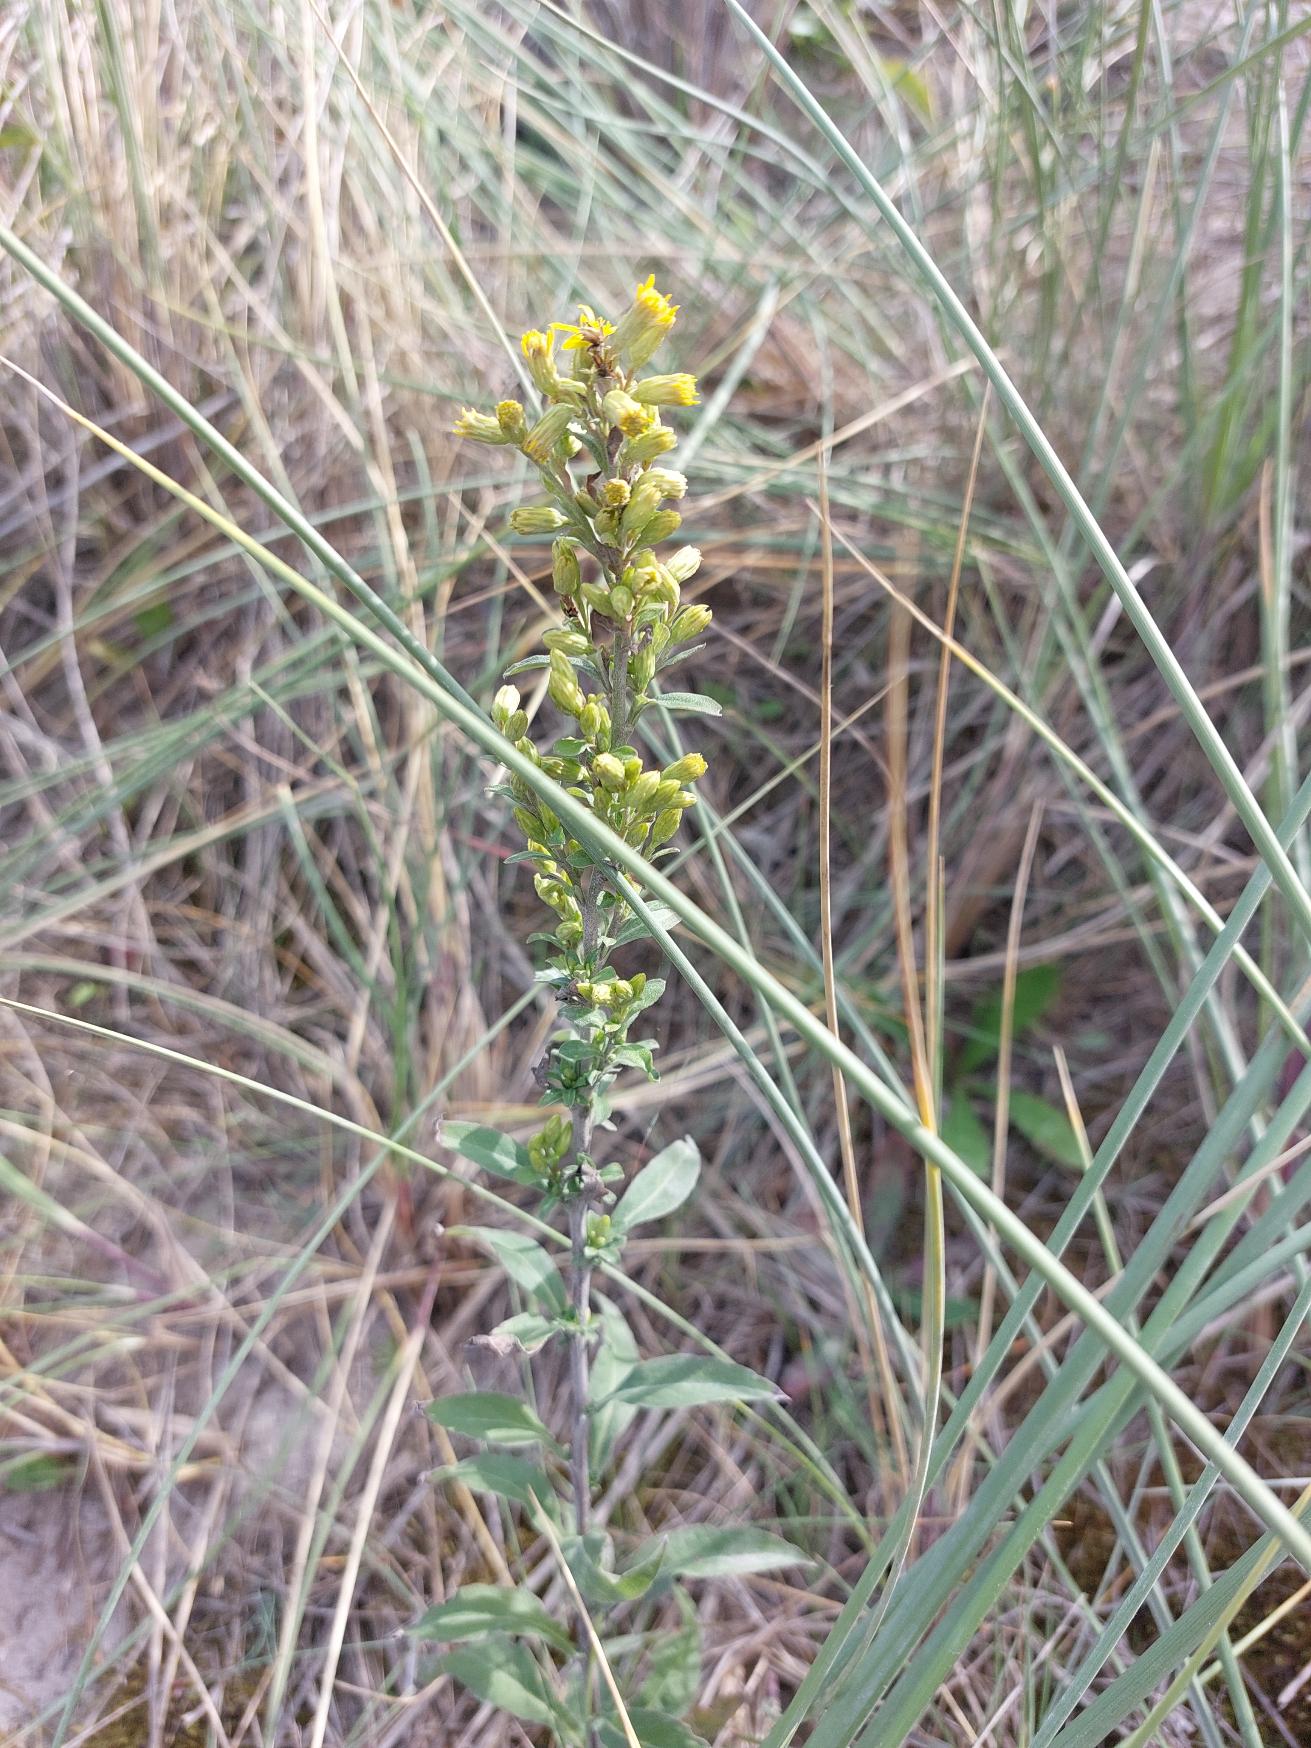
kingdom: Plantae
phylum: Tracheophyta
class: Magnoliopsida
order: Asterales
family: Asteraceae
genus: Solidago
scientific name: Solidago virgaurea
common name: Almindelig gyldenris
